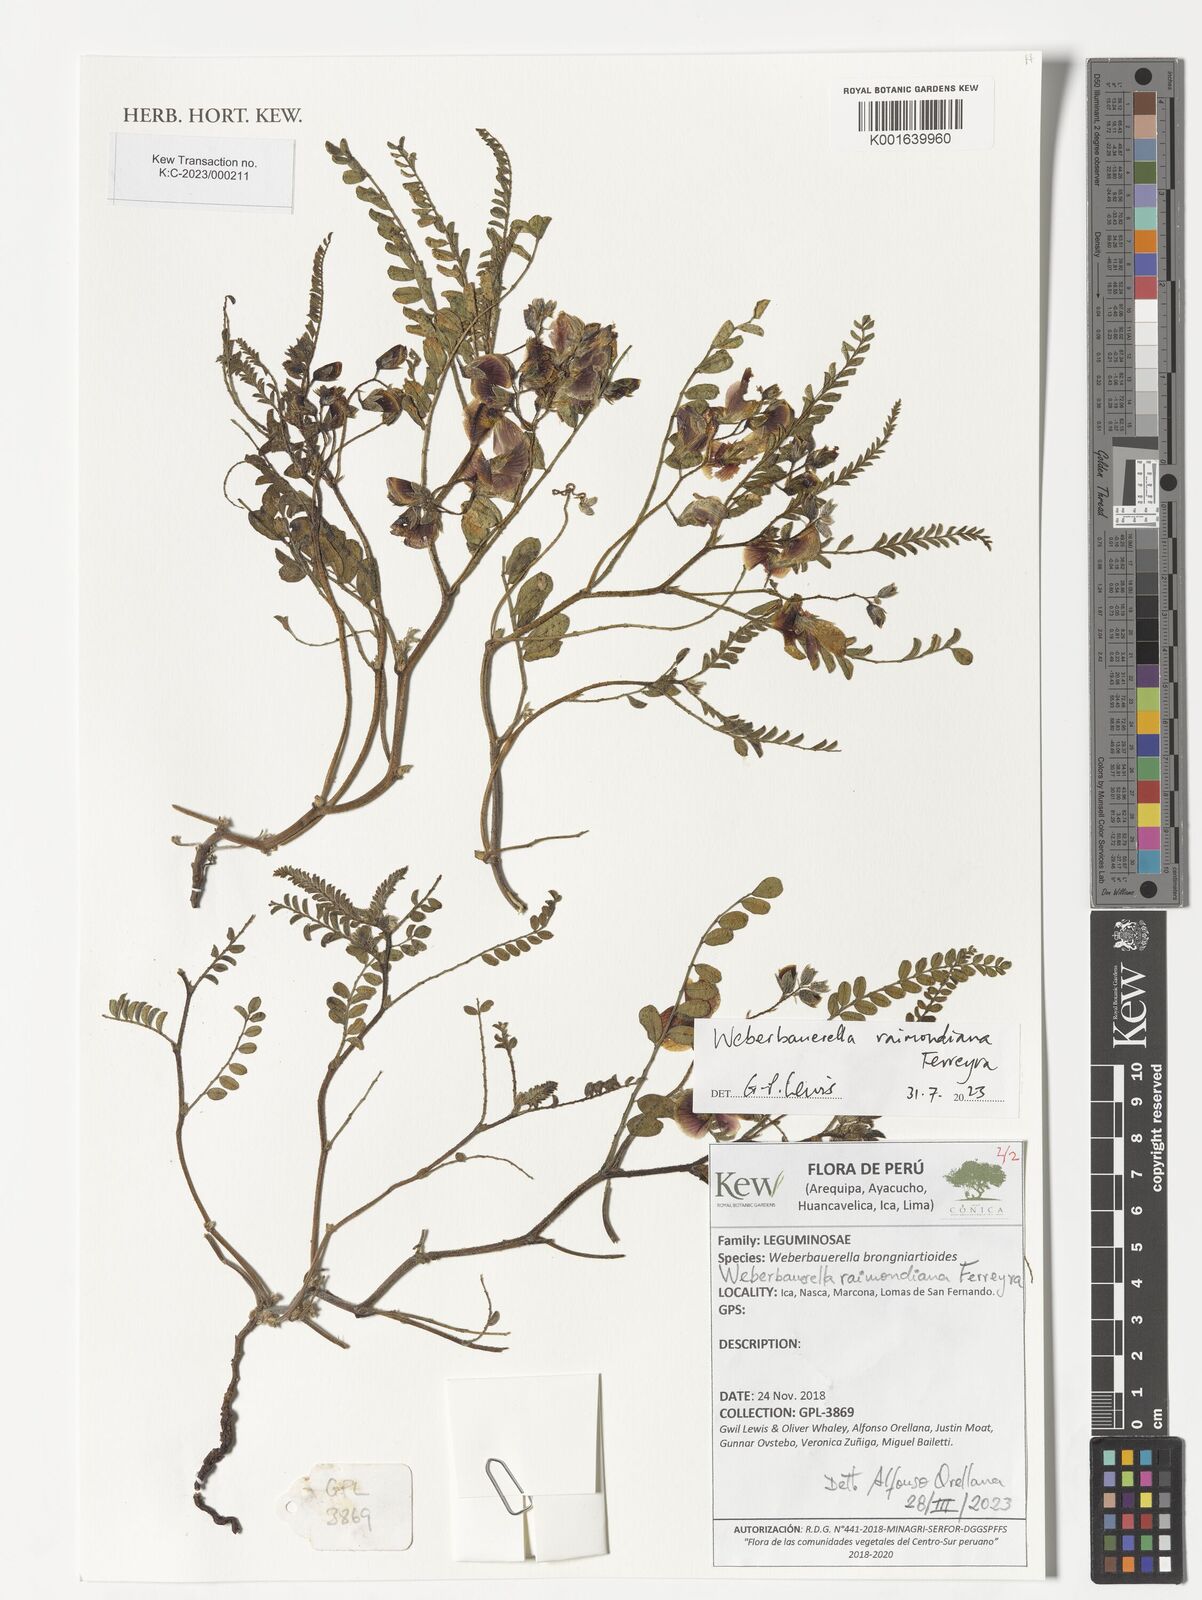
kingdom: Plantae
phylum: Tracheophyta
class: Magnoliopsida
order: Fabales
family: Fabaceae
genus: Weberbauerella
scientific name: Weberbauerella raimondiana
